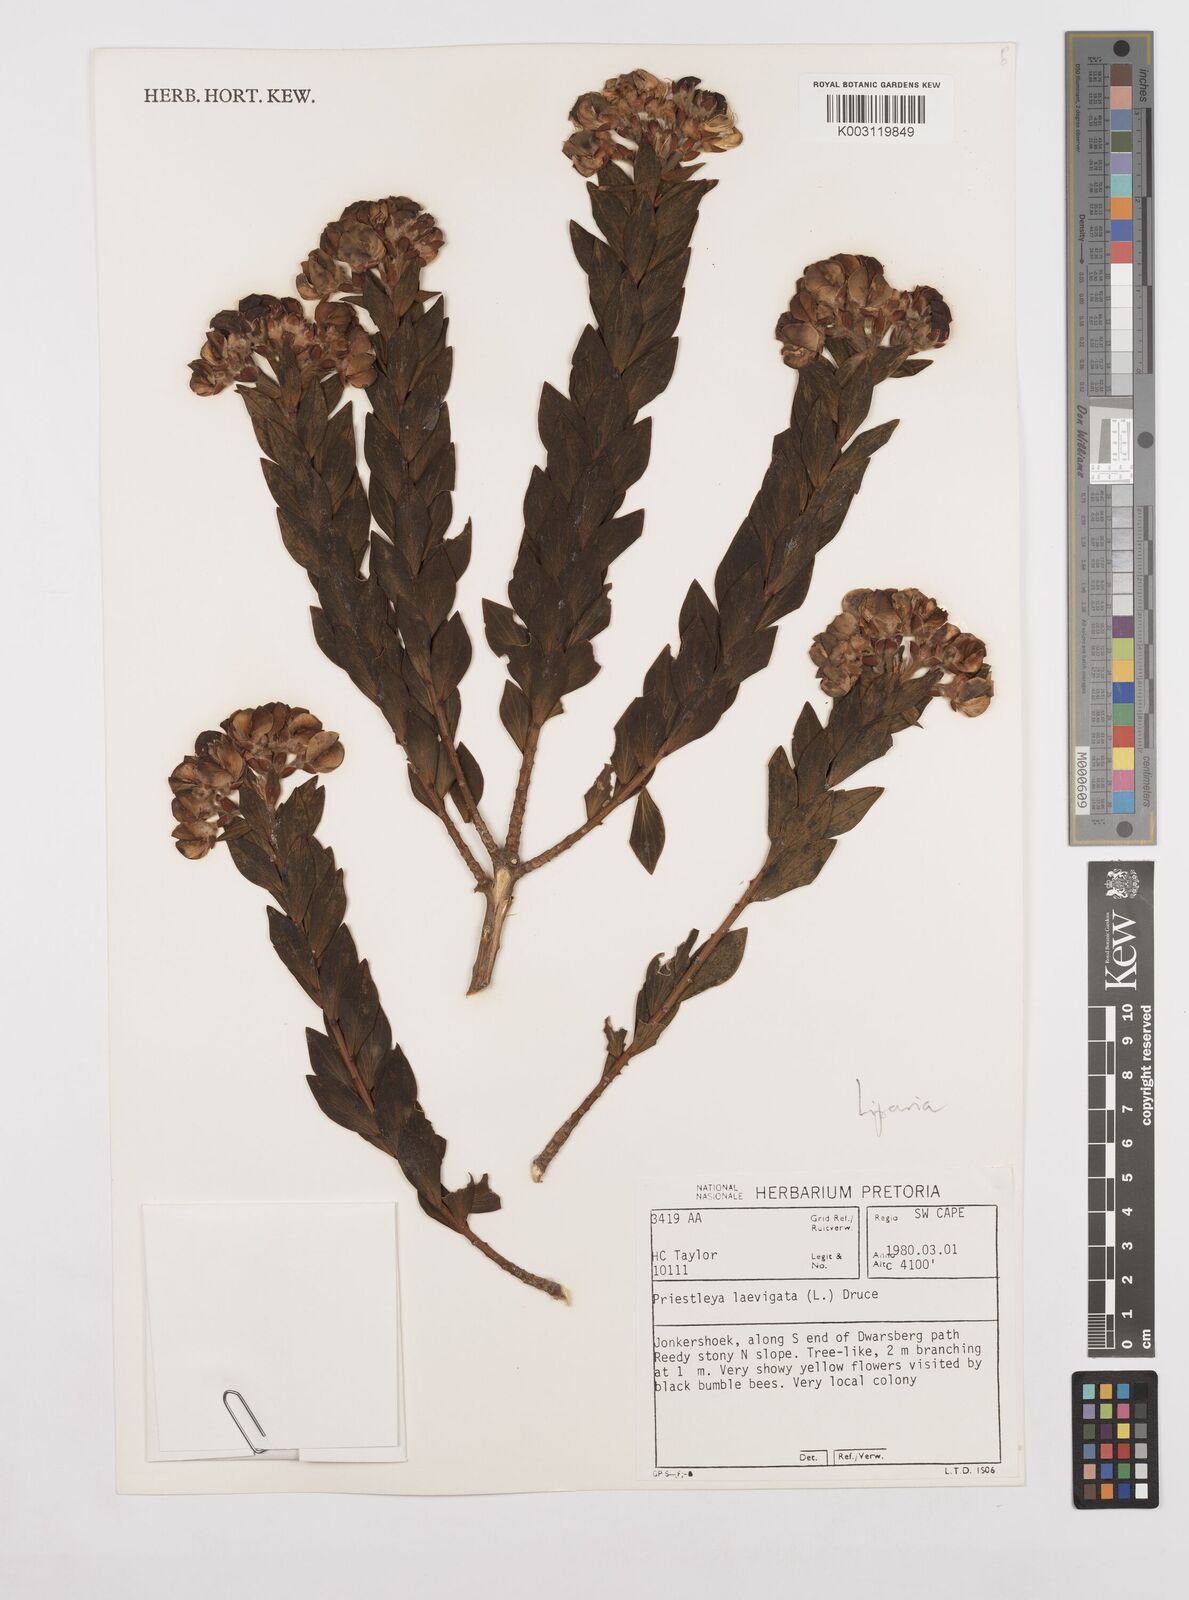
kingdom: Plantae
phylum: Tracheophyta
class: Magnoliopsida
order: Fabales
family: Fabaceae
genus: Liparia
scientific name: Liparia
